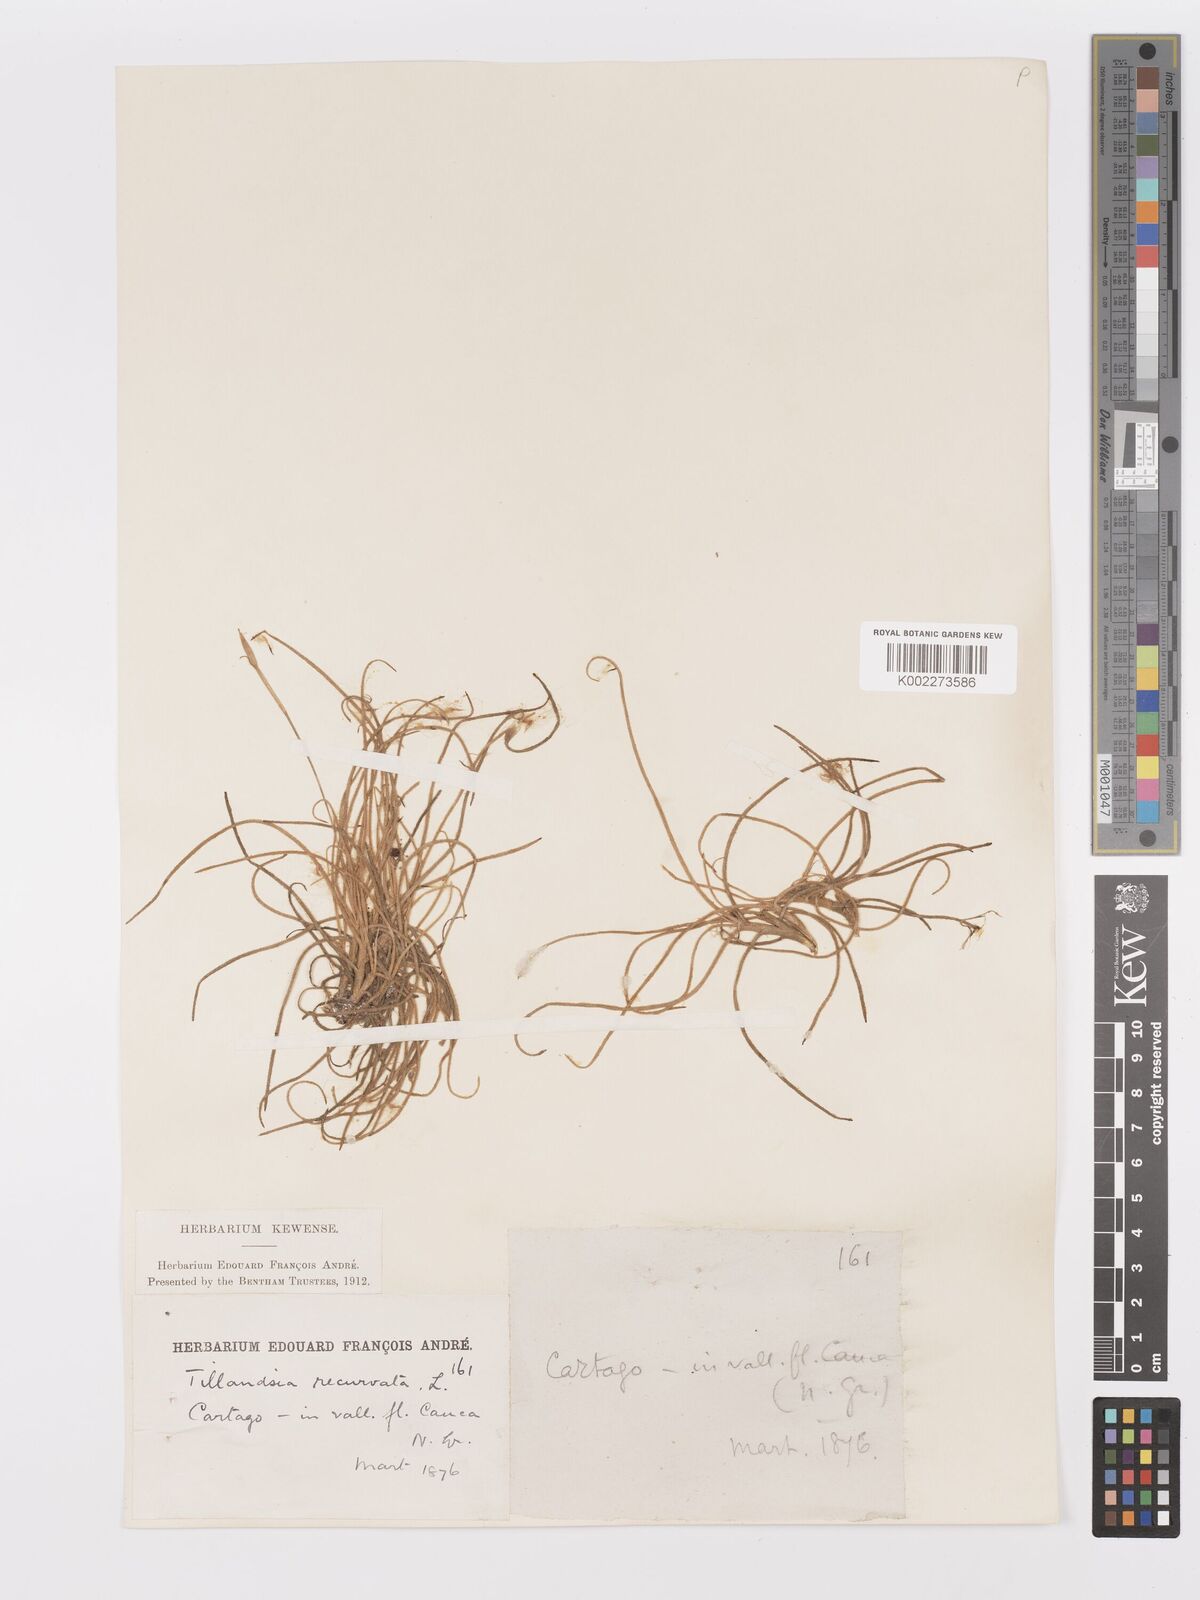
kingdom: Plantae
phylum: Tracheophyta
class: Liliopsida
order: Poales
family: Bromeliaceae
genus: Tillandsia
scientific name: Tillandsia recurvata
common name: Small ballmoss
